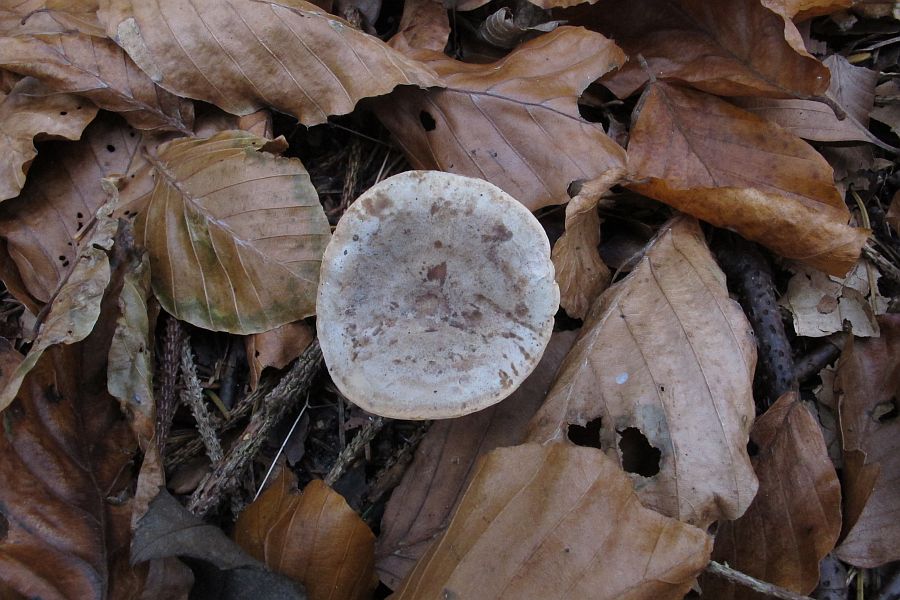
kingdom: Fungi
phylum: Basidiomycota
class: Agaricomycetes
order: Russulales
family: Russulaceae
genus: Lactarius
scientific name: Lactarius fluens
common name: lysrandet mælkehat
